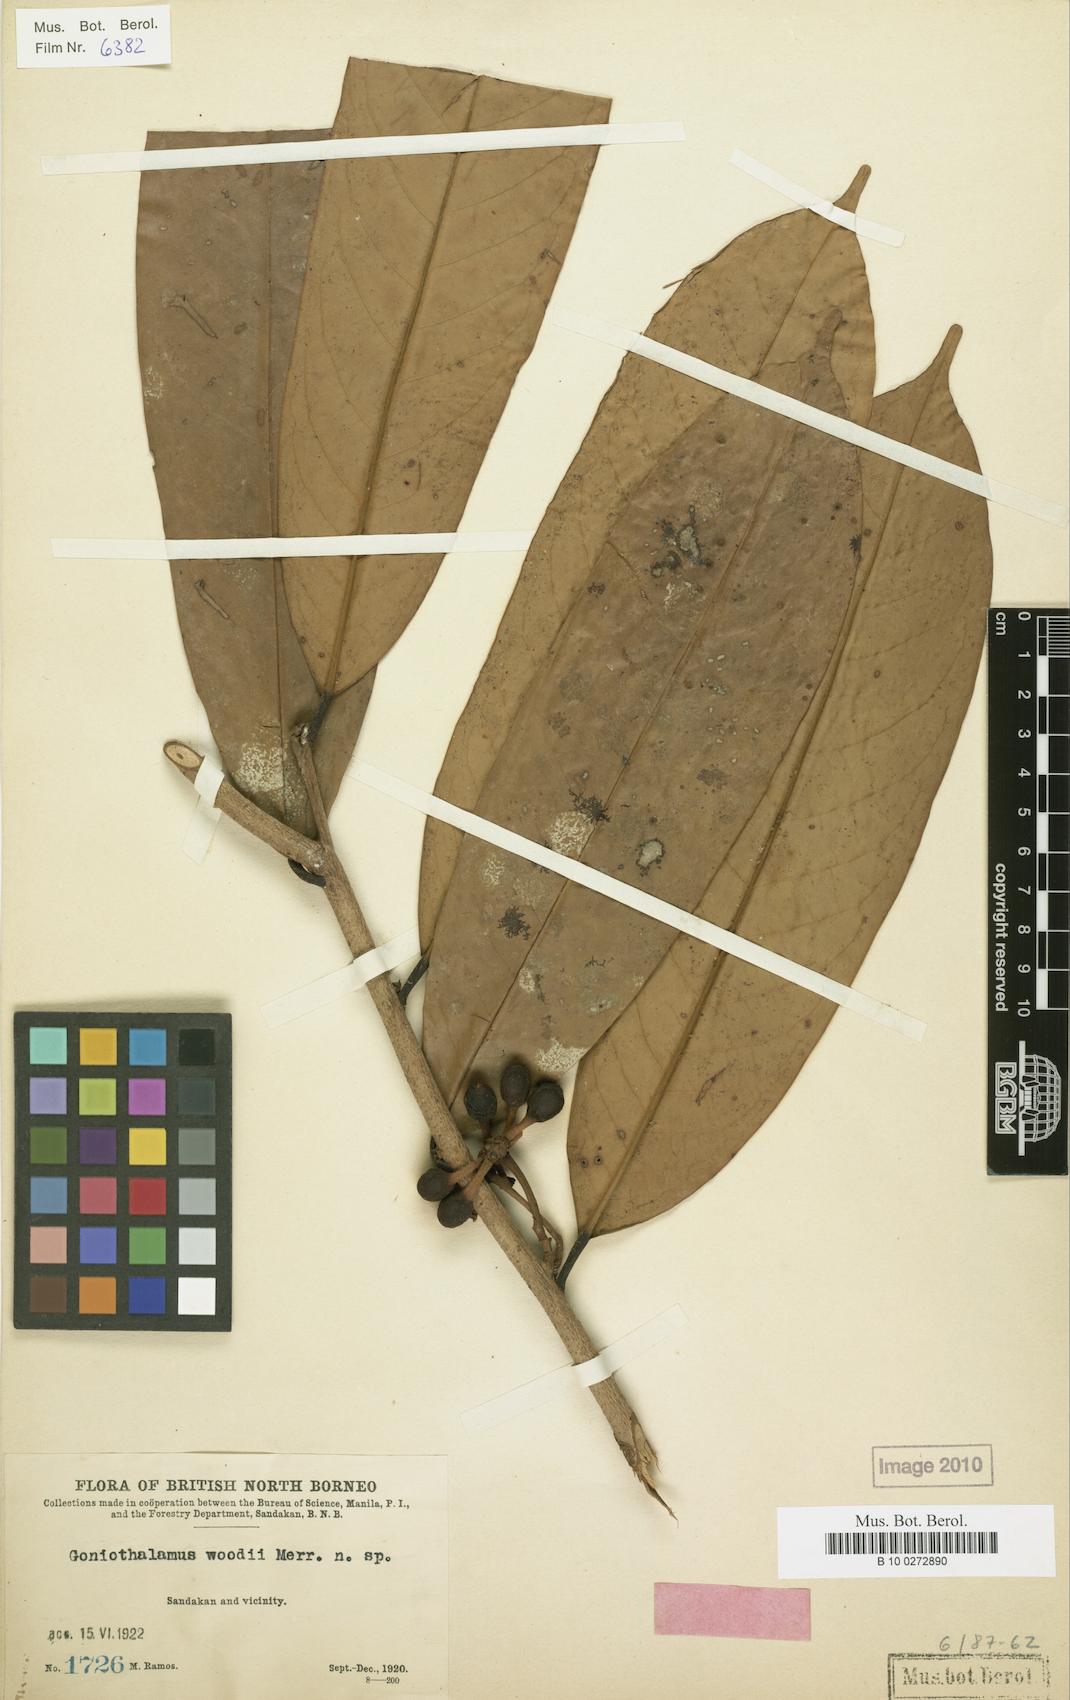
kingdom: Plantae
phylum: Tracheophyta
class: Magnoliopsida
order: Magnoliales
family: Annonaceae
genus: Goniothalamus
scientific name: Goniothalamus woodii
